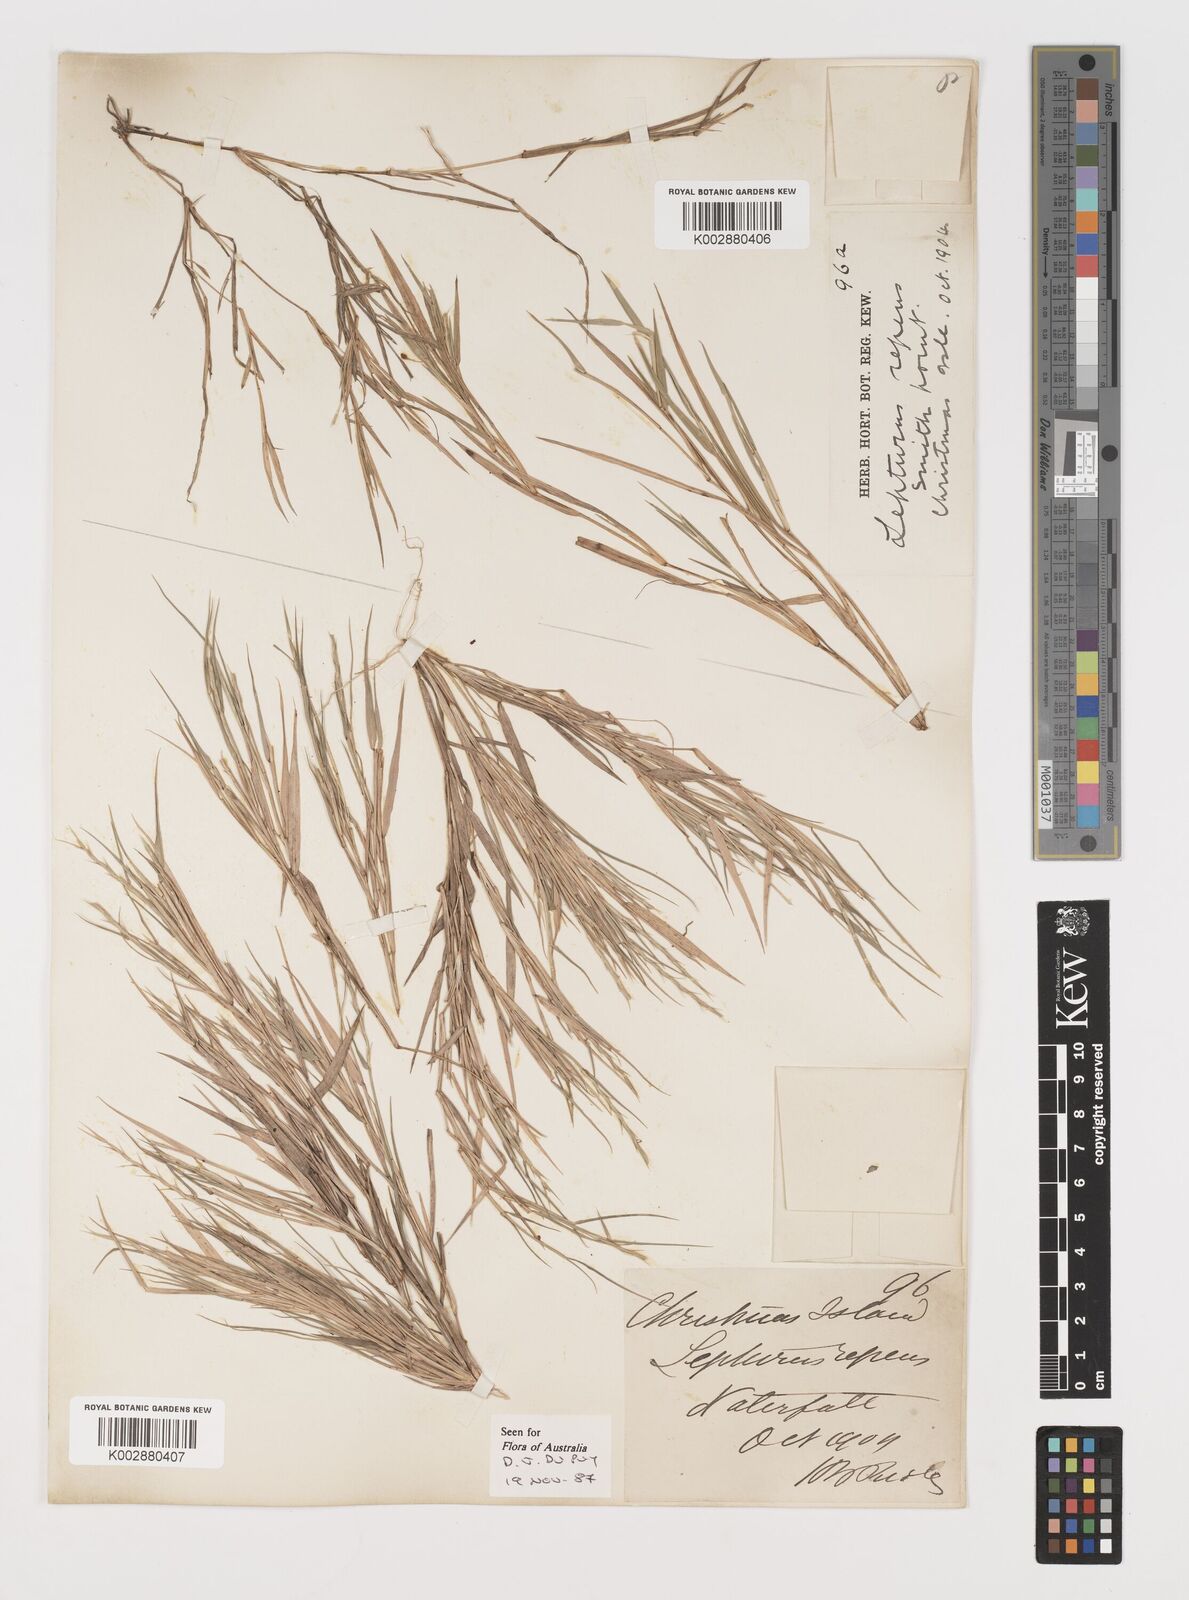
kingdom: Plantae
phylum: Tracheophyta
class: Liliopsida
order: Poales
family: Poaceae
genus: Lepturus
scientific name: Lepturus repens
